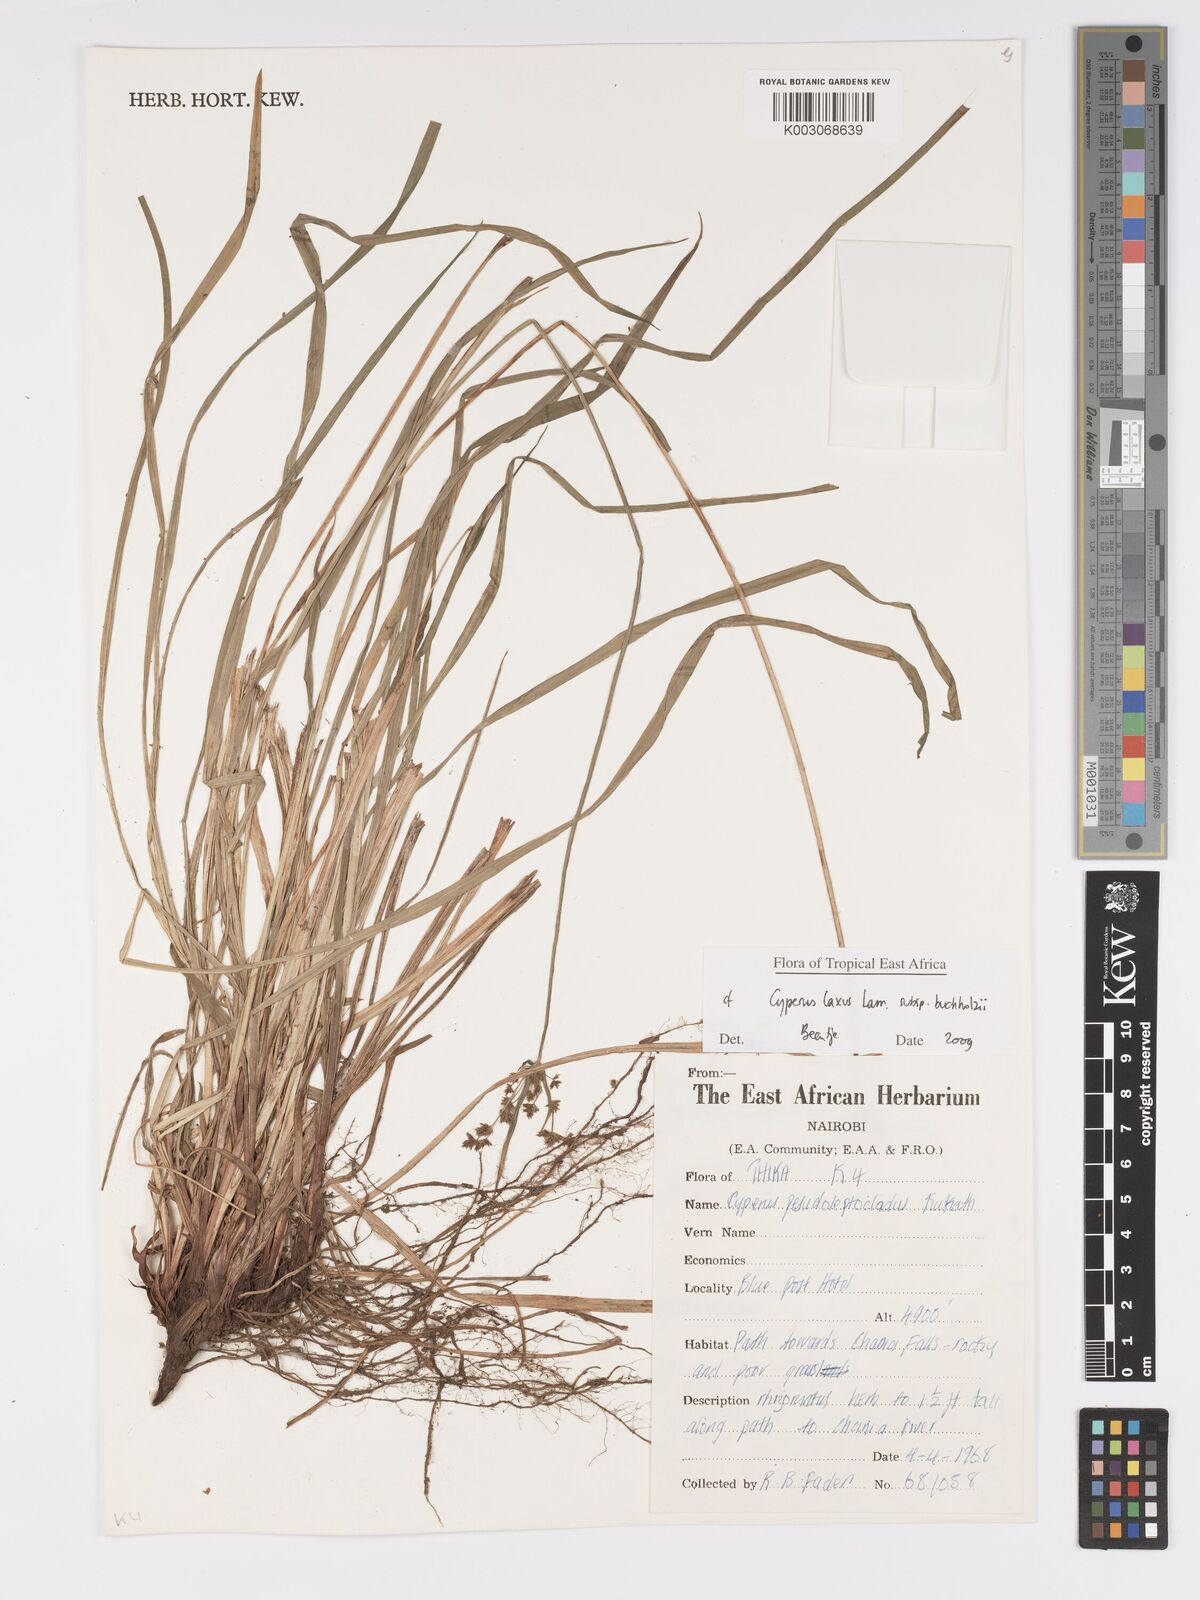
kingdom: Plantae
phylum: Tracheophyta
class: Liliopsida
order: Poales
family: Cyperaceae
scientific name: Cyperaceae
